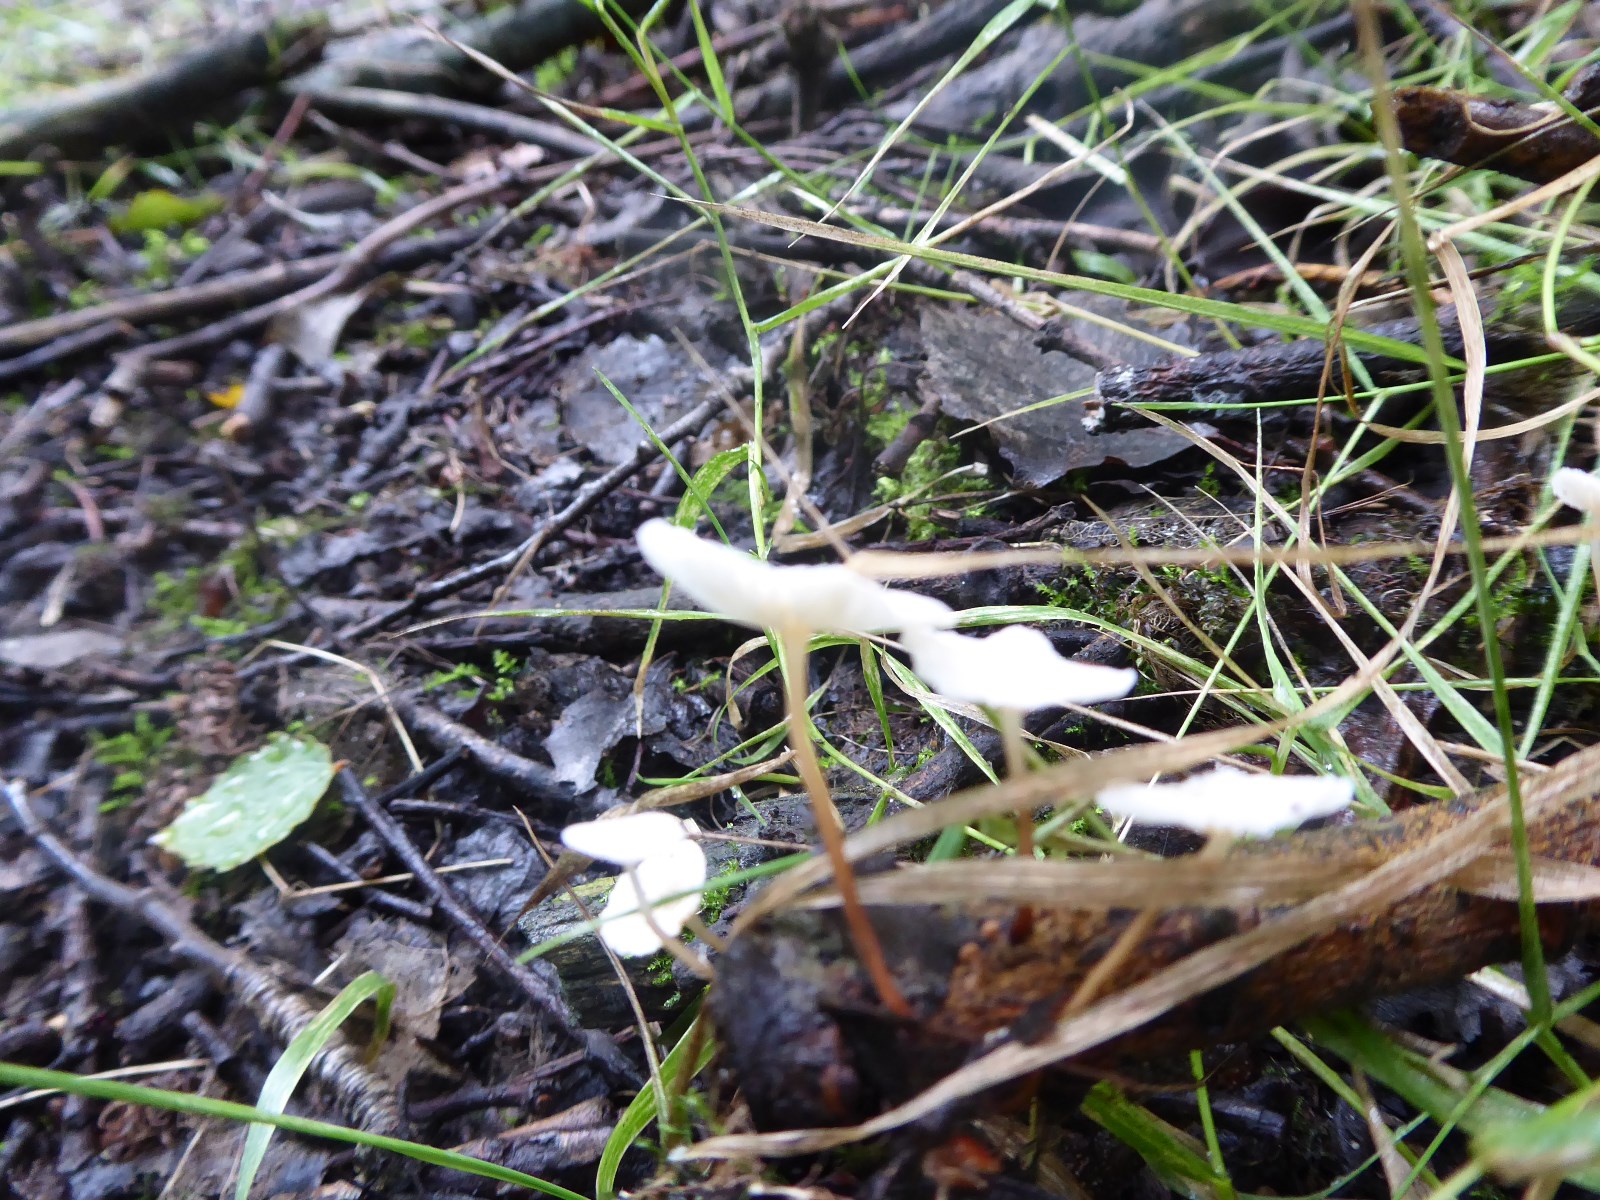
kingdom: Fungi
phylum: Basidiomycota
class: Agaricomycetes
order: Agaricales
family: Omphalotaceae
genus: Collybiopsis
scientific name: Collybiopsis vaillantii
